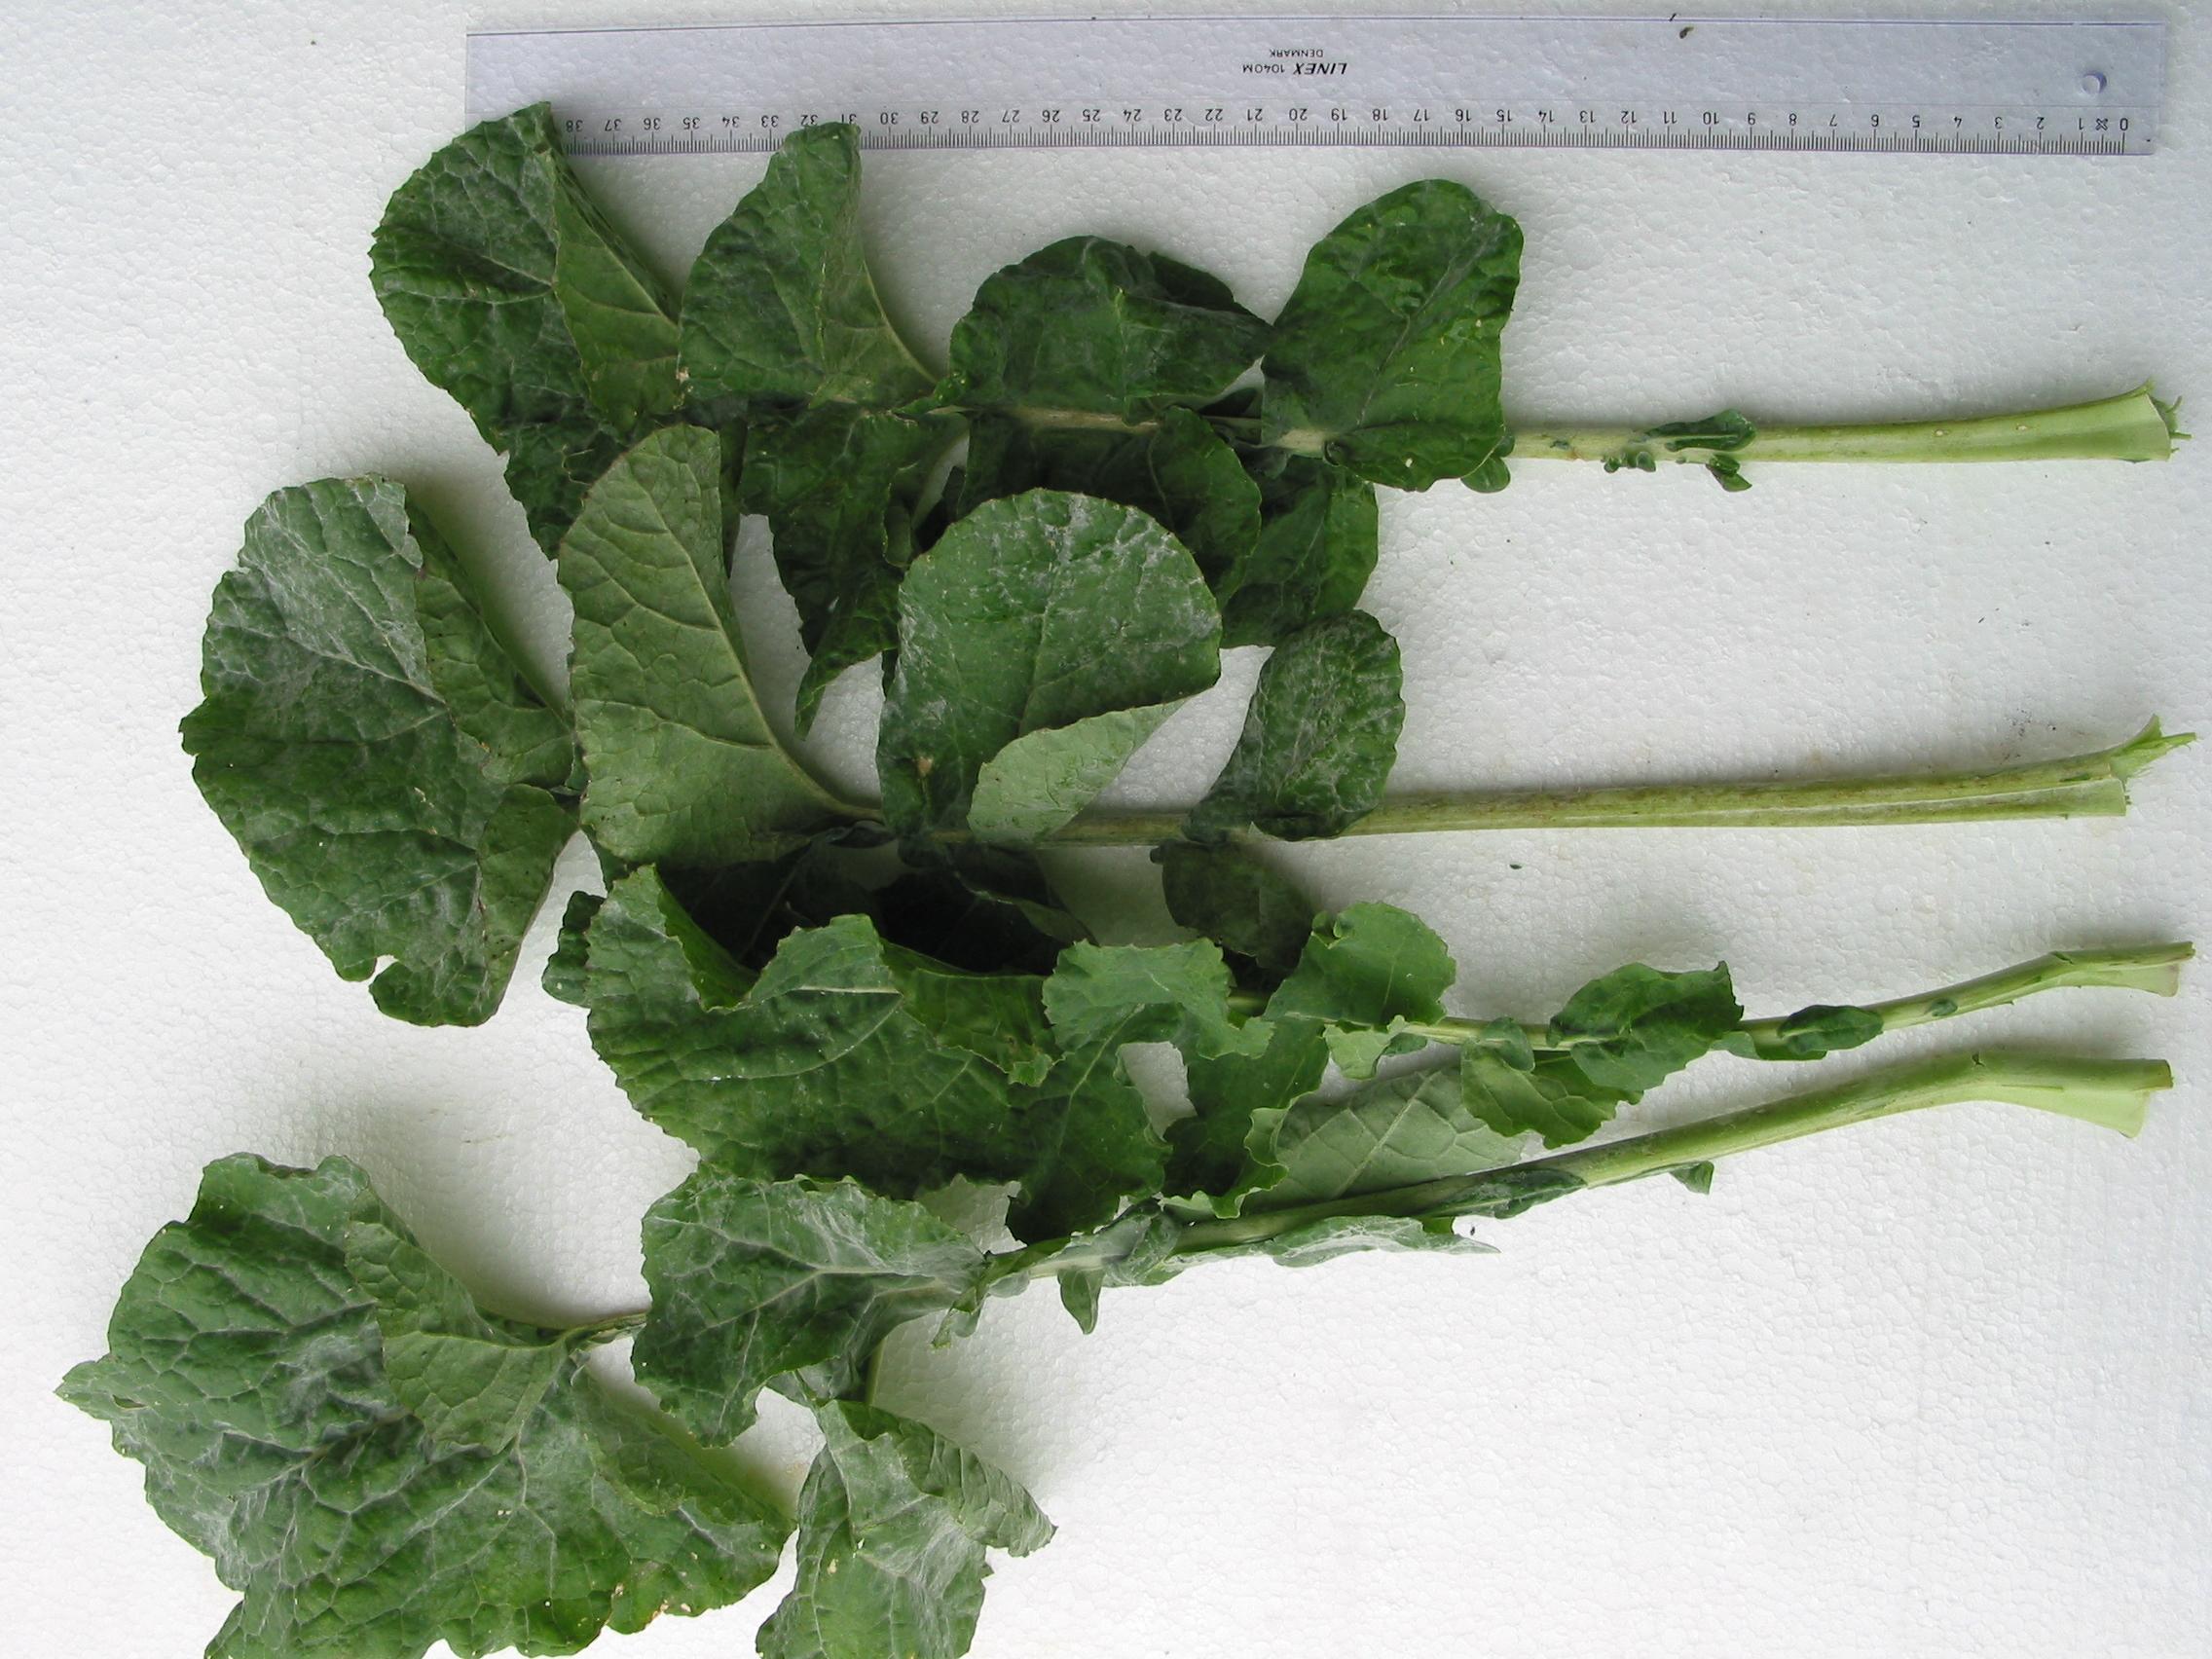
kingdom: Plantae
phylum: Tracheophyta
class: Magnoliopsida
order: Brassicales
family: Brassicaceae
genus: Brassica
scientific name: Brassica napus
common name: Rape
